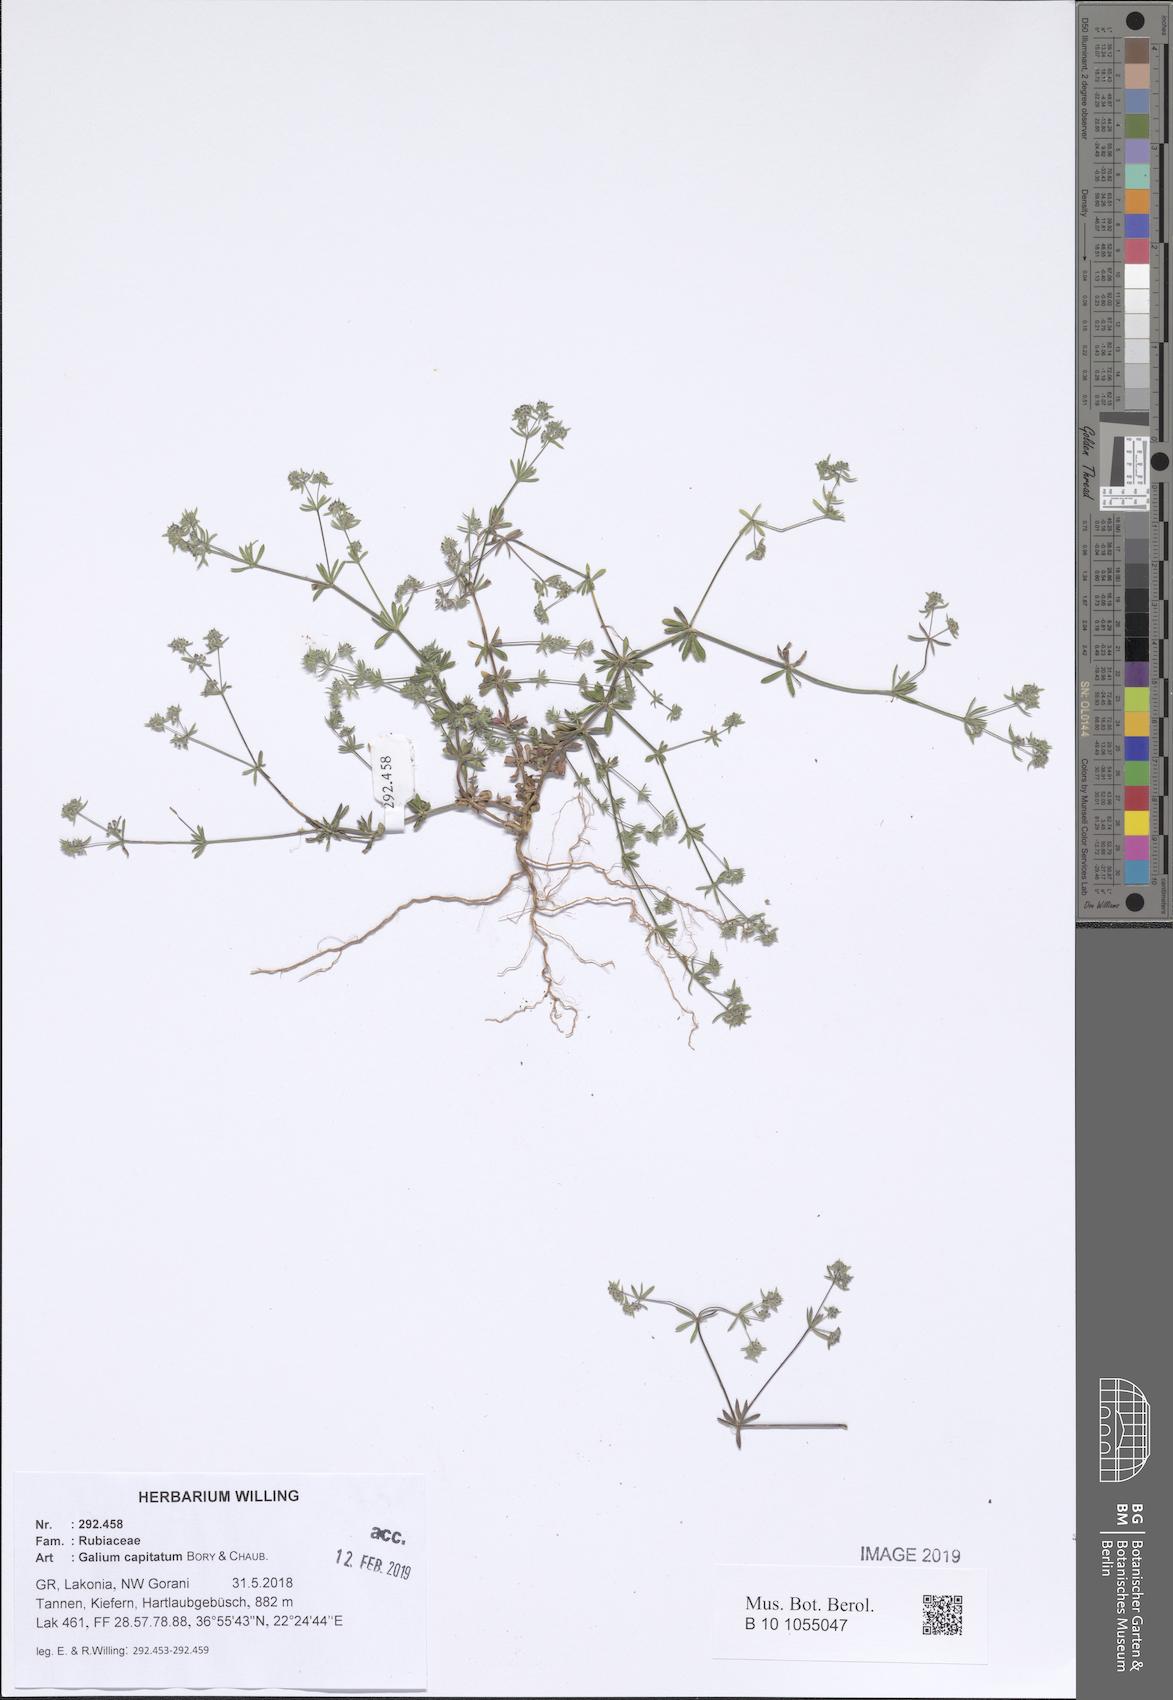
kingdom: Plantae
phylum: Tracheophyta
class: Magnoliopsida
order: Gentianales
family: Rubiaceae
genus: Galium
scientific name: Galium capitatum
